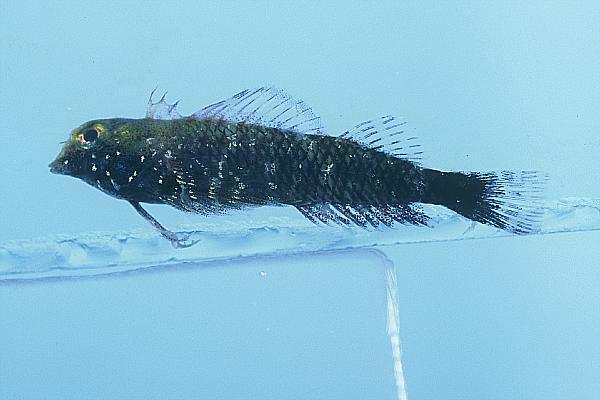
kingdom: Animalia
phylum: Chordata
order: Perciformes
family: Tripterygiidae
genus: Enneapterygius
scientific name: Enneapterygius philippinus
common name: Minute triplefin
